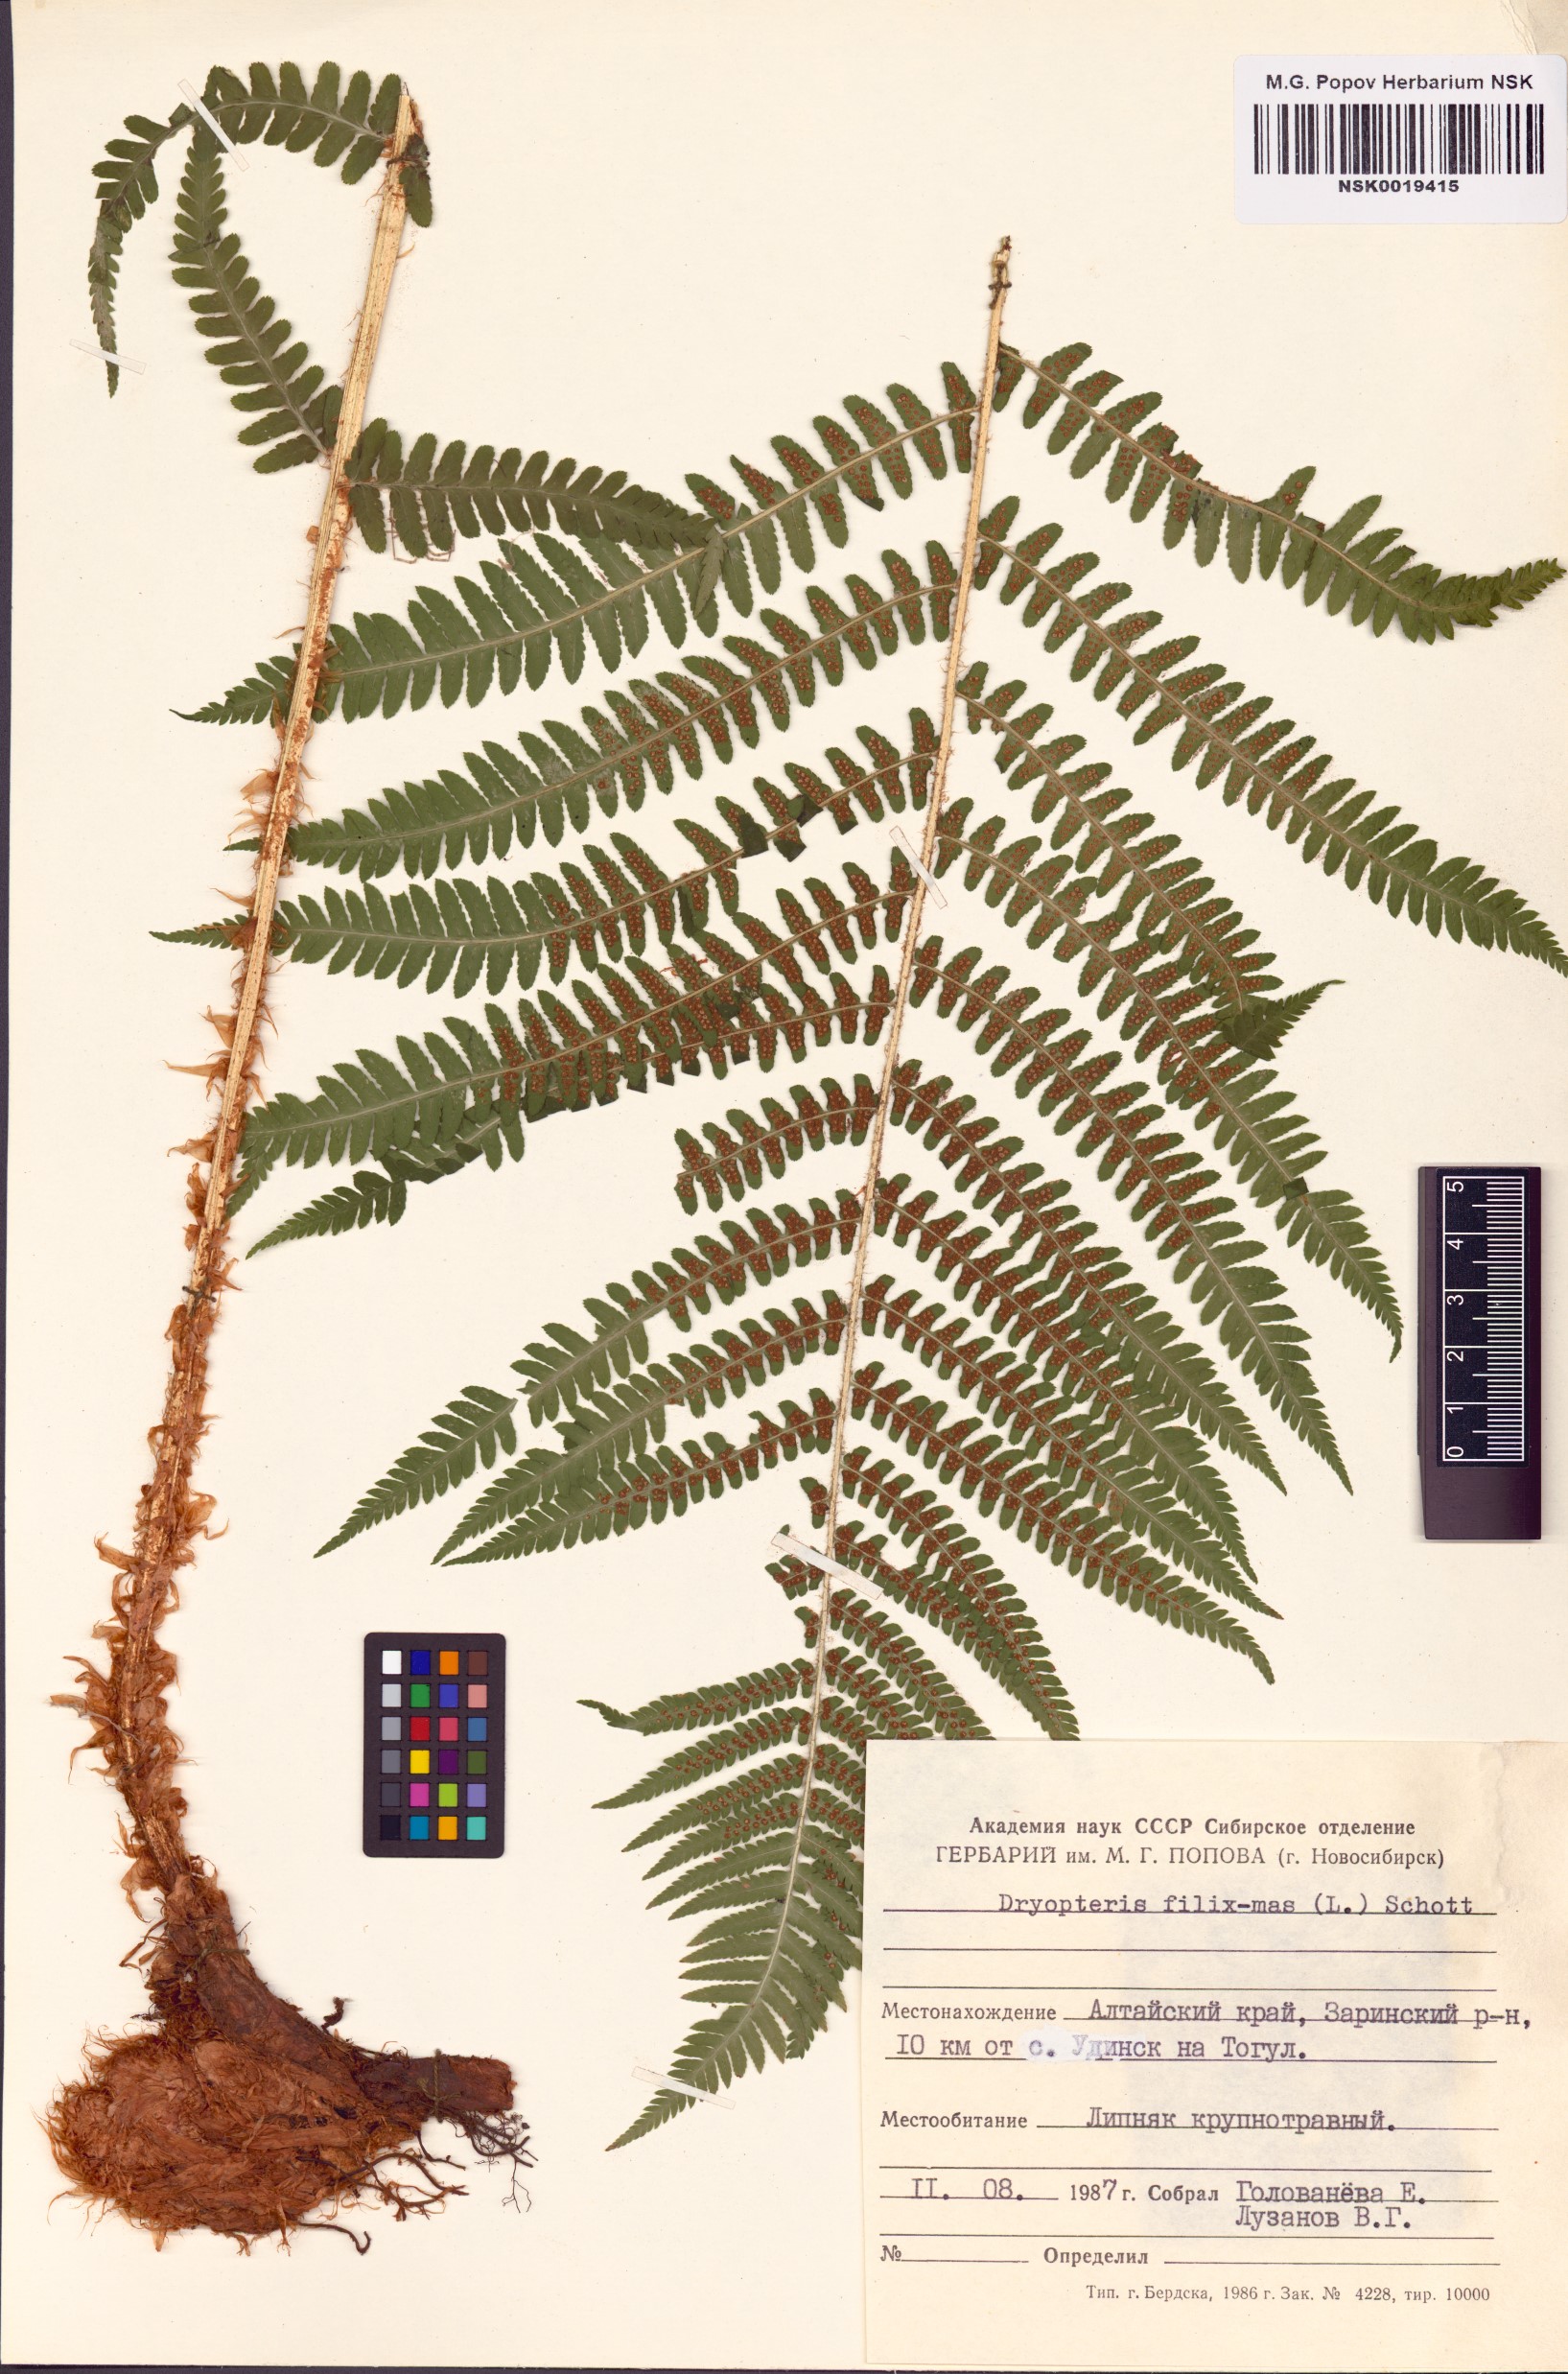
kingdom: Plantae
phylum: Tracheophyta
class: Polypodiopsida
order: Polypodiales
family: Dryopteridaceae
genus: Dryopteris
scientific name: Dryopteris filix-mas
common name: Male fern
